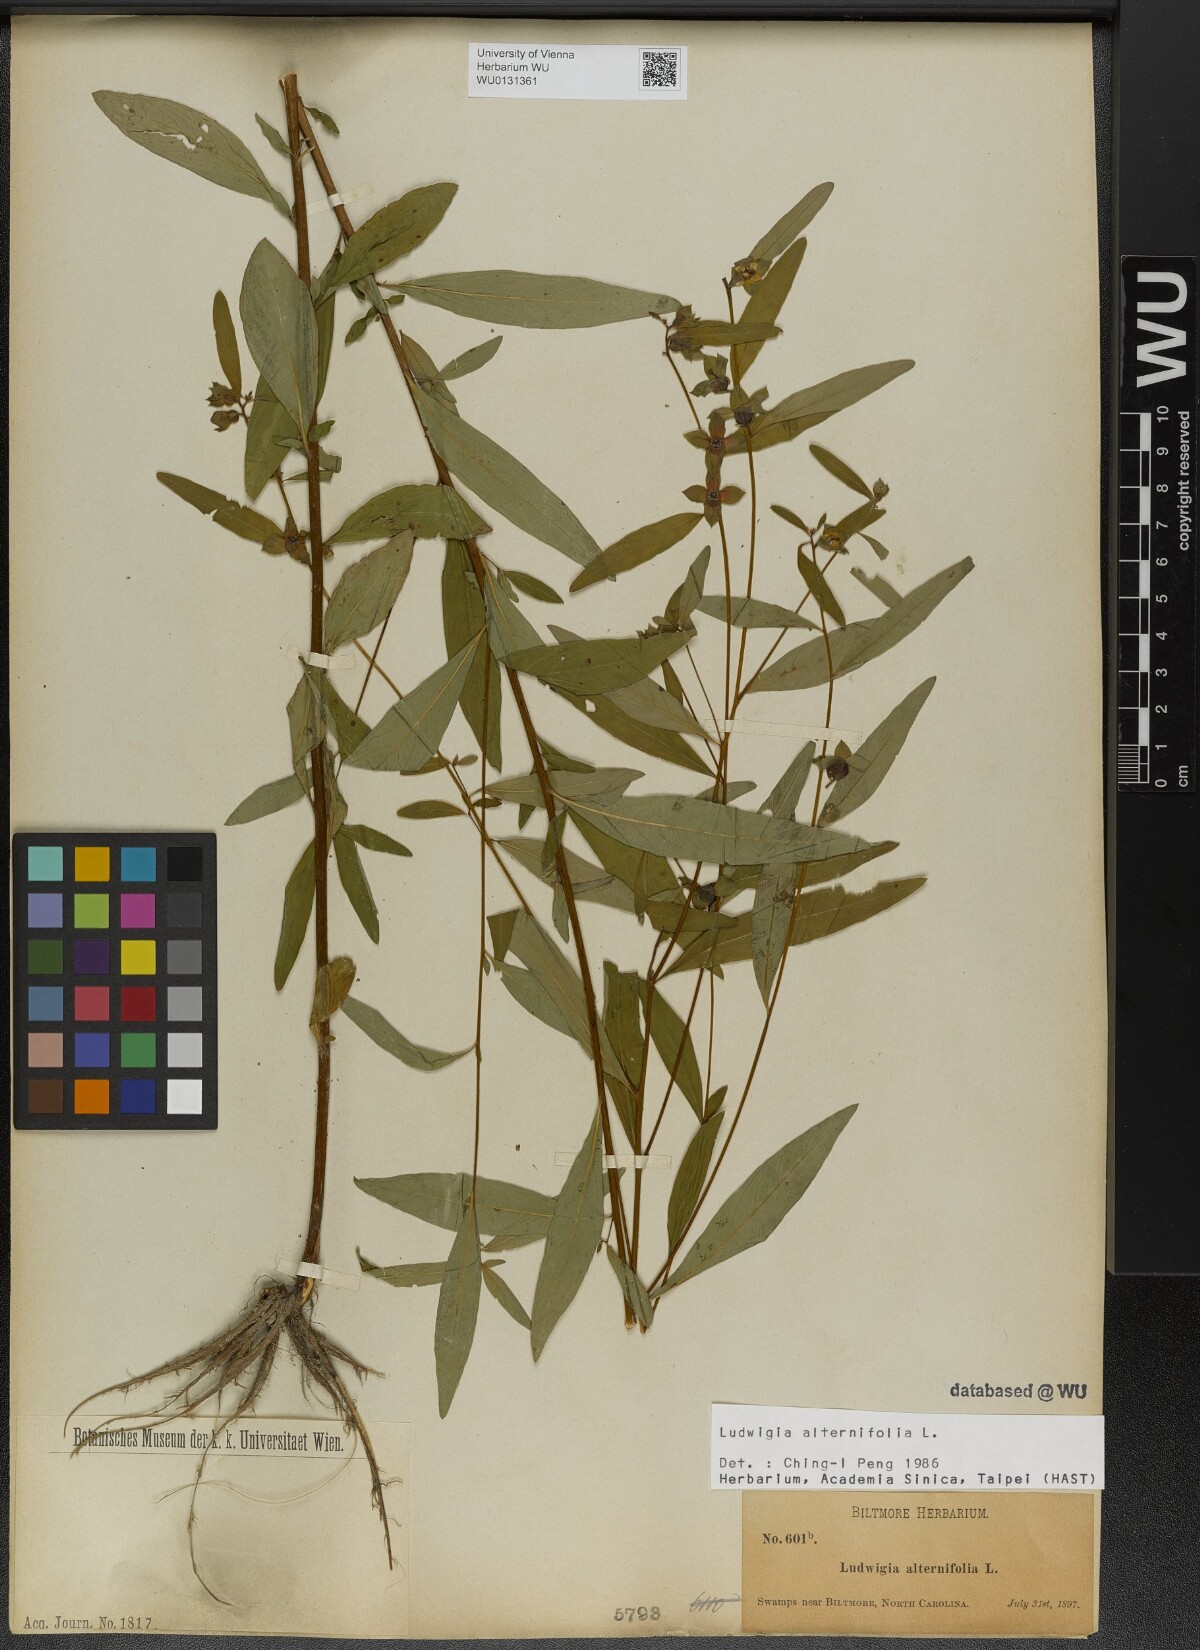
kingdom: Plantae
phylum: Tracheophyta
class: Magnoliopsida
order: Myrtales
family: Onagraceae
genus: Ludwigia
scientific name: Ludwigia alternifolia
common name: Rattlebox
